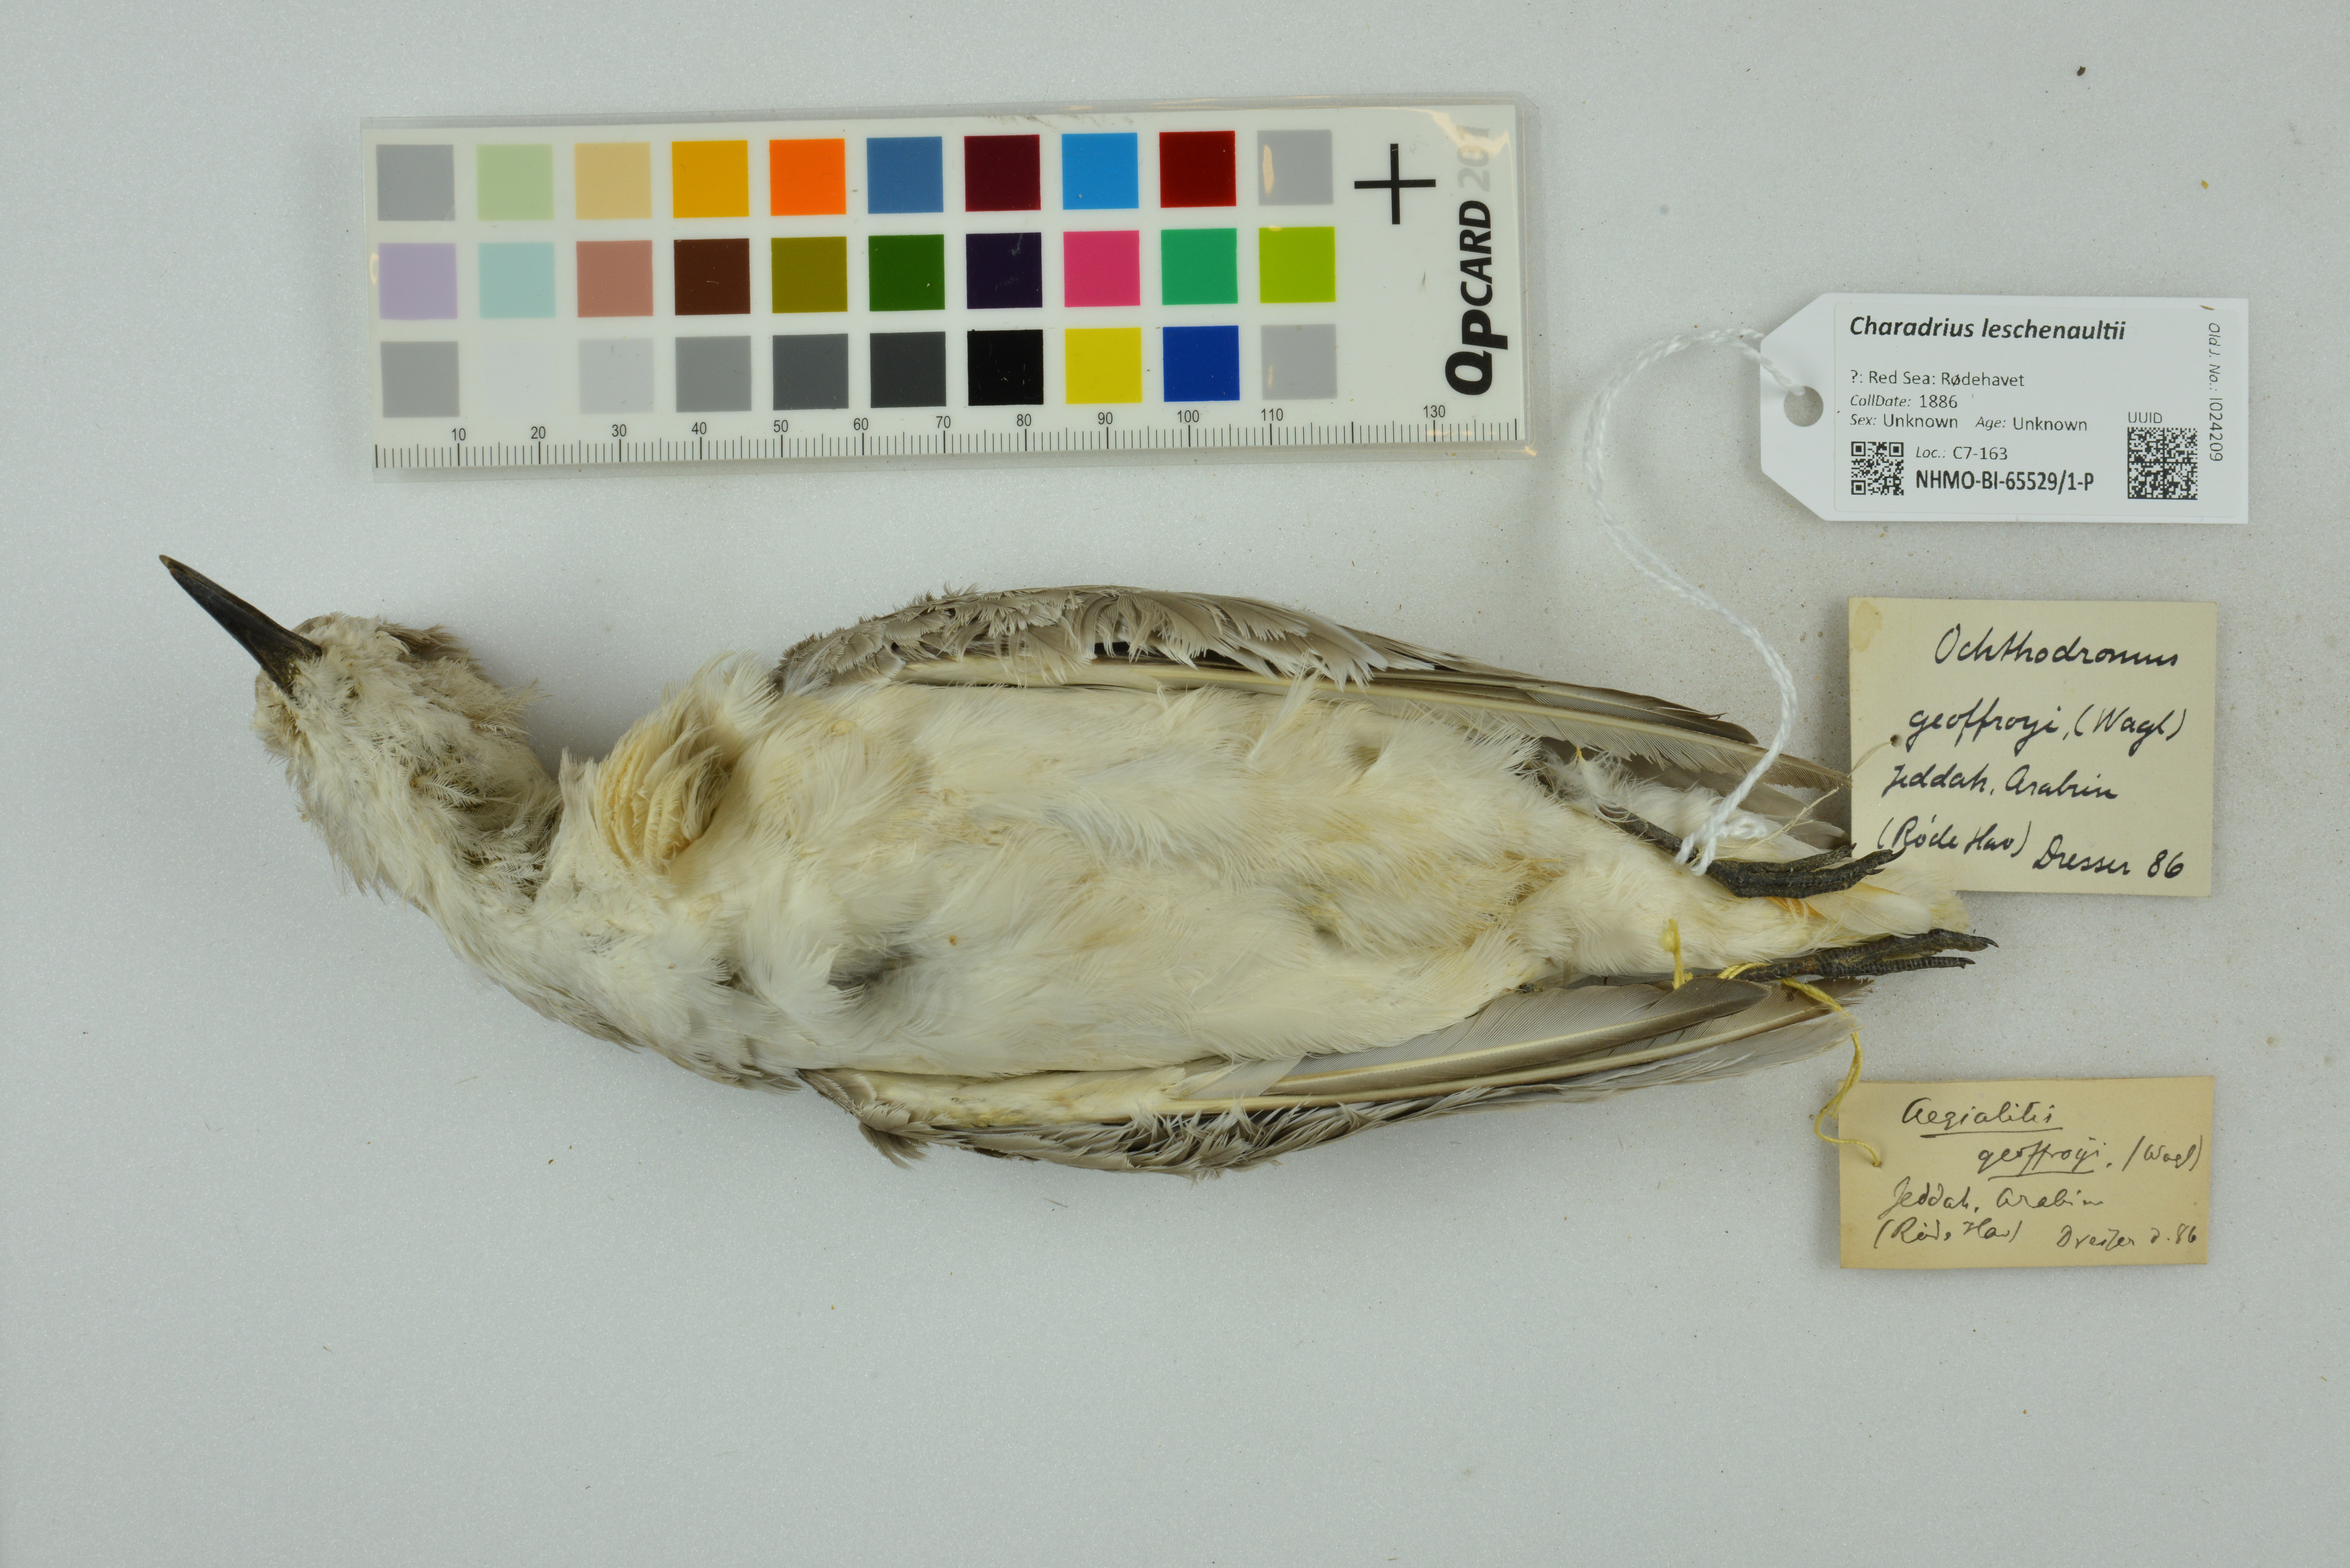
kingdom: Animalia
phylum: Chordata
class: Aves
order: Charadriiformes
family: Charadriidae
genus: Charadrius
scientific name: Charadrius leschenaultii
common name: Greater sand plover
